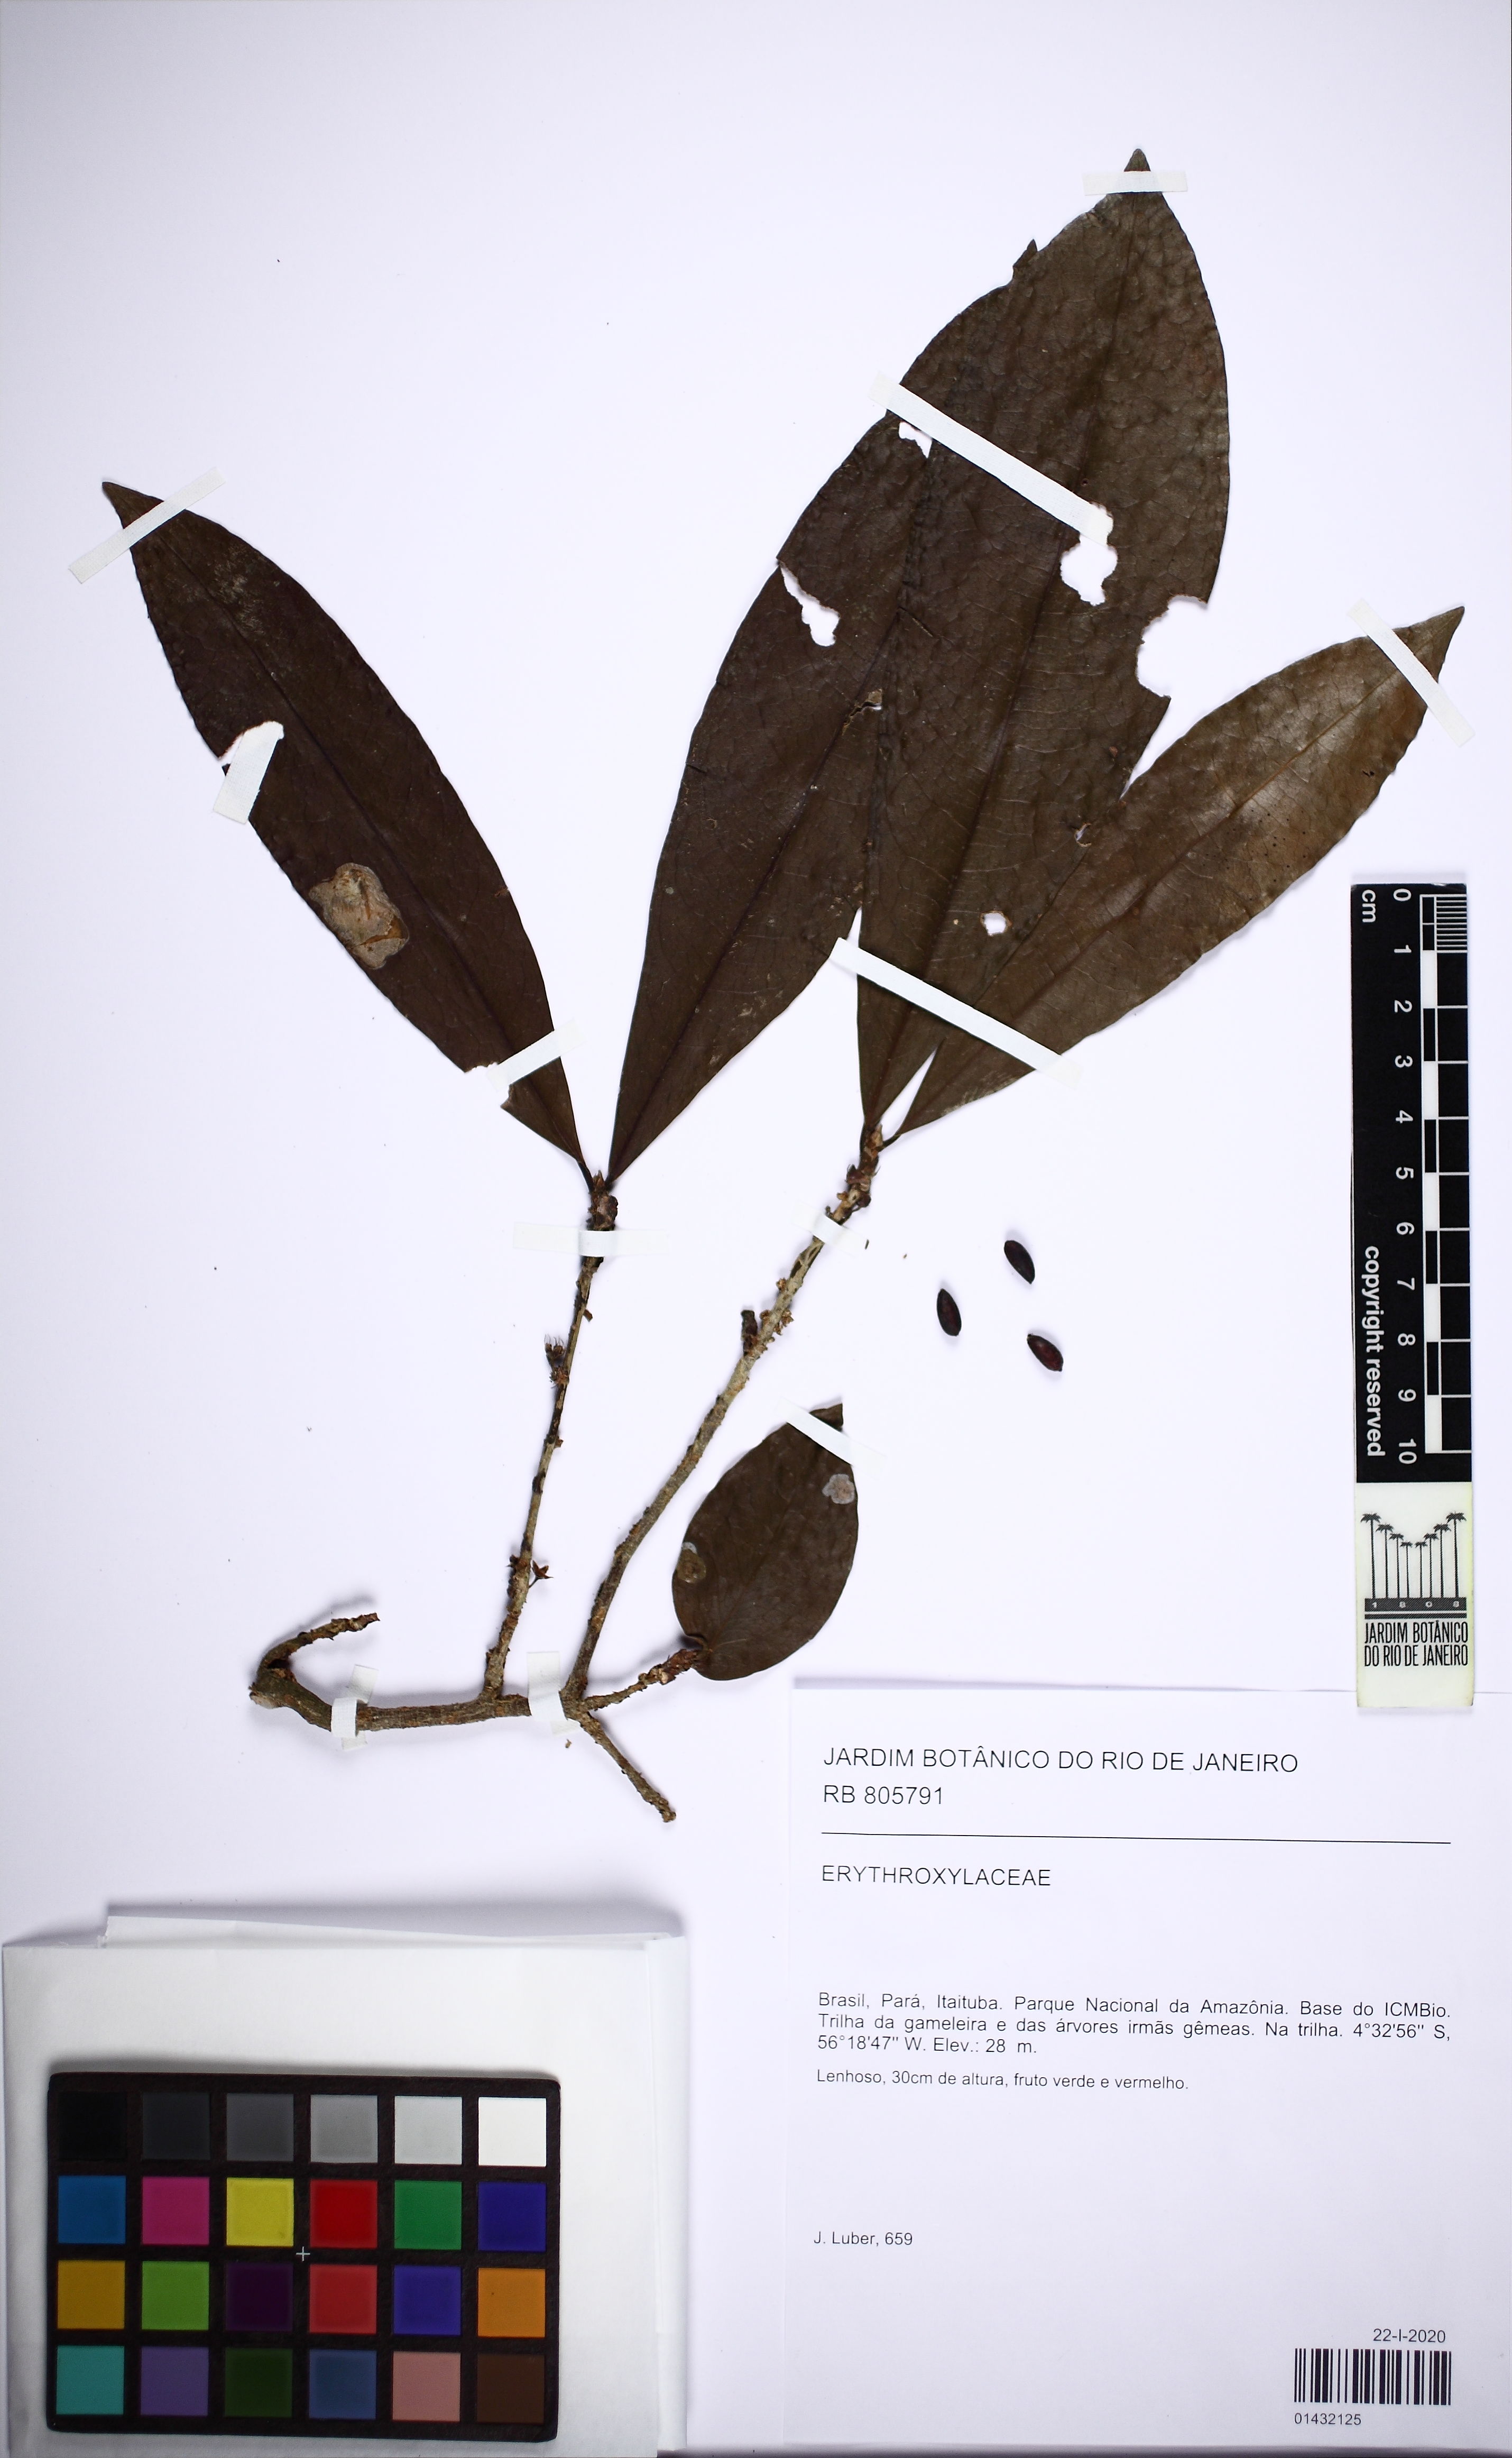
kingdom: Plantae
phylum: Tracheophyta
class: Magnoliopsida
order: Malpighiales
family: Erythroxylaceae
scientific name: Erythroxylaceae
